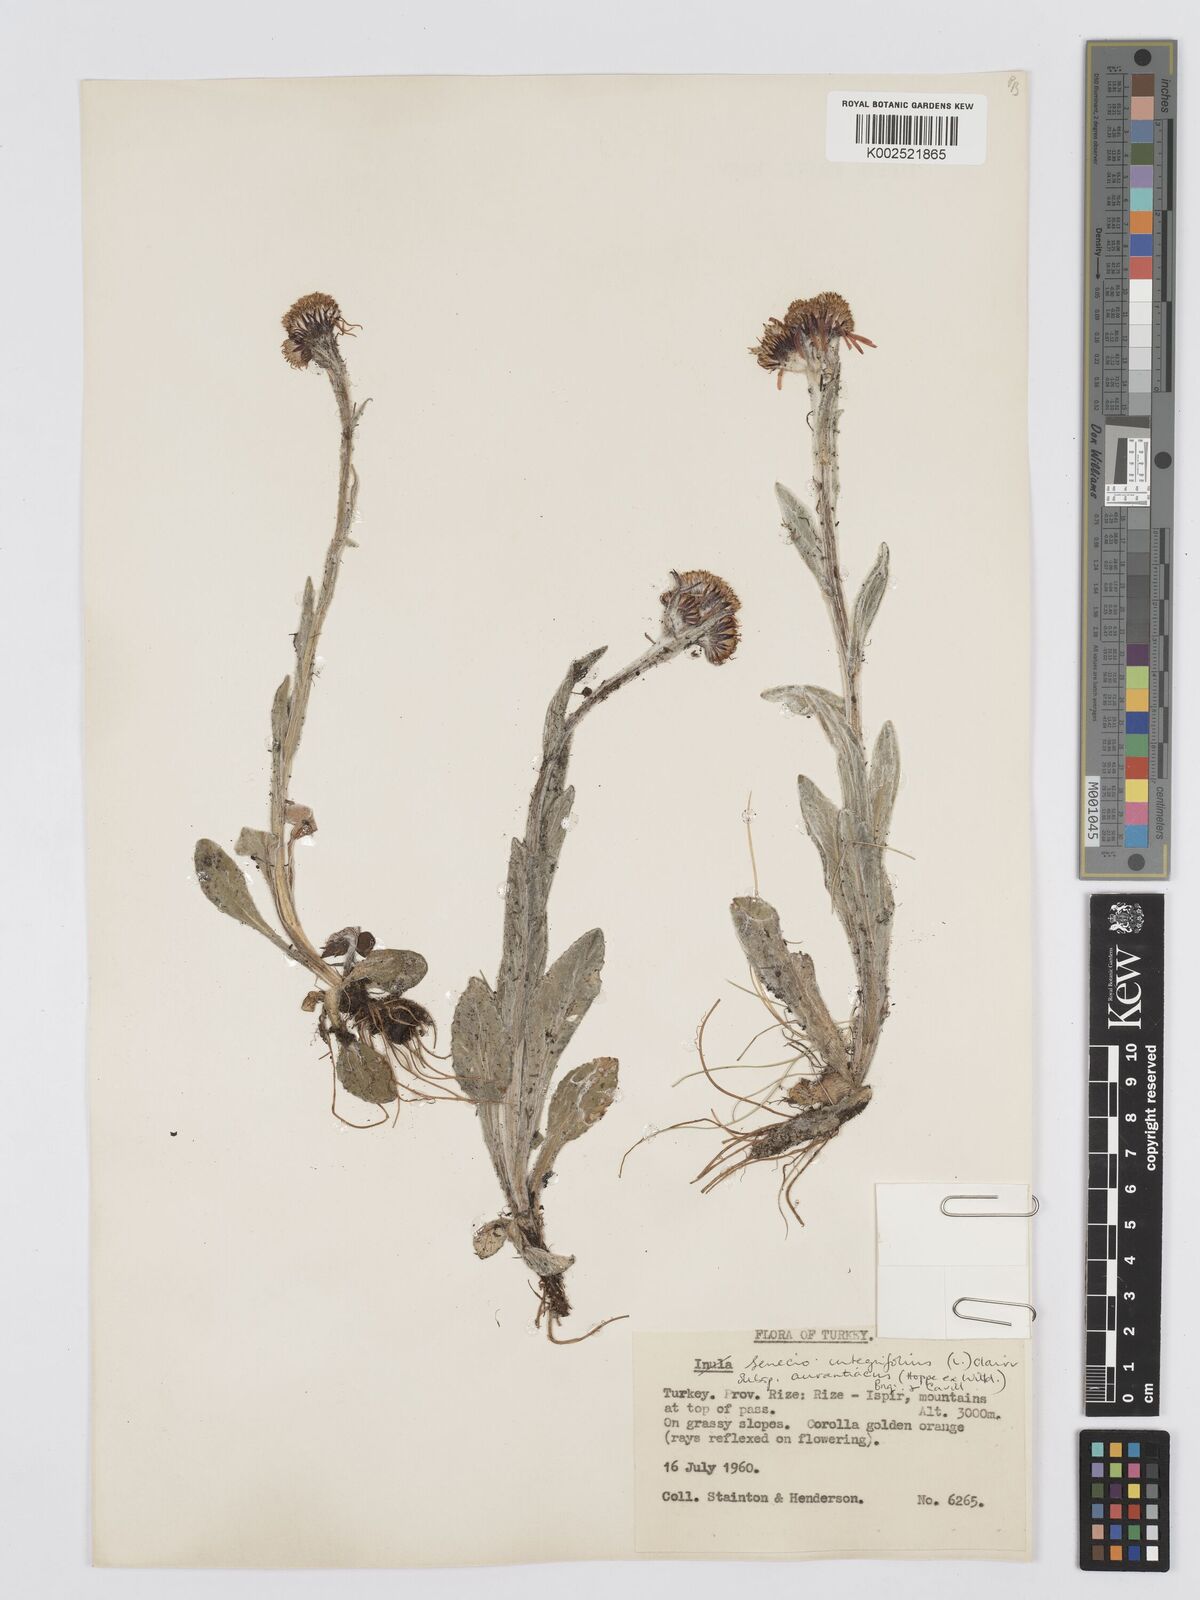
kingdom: Plantae
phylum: Tracheophyta
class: Magnoliopsida
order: Asterales
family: Asteraceae
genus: Tephroseris
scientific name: Tephroseris integrifolia
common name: Field fleawort
